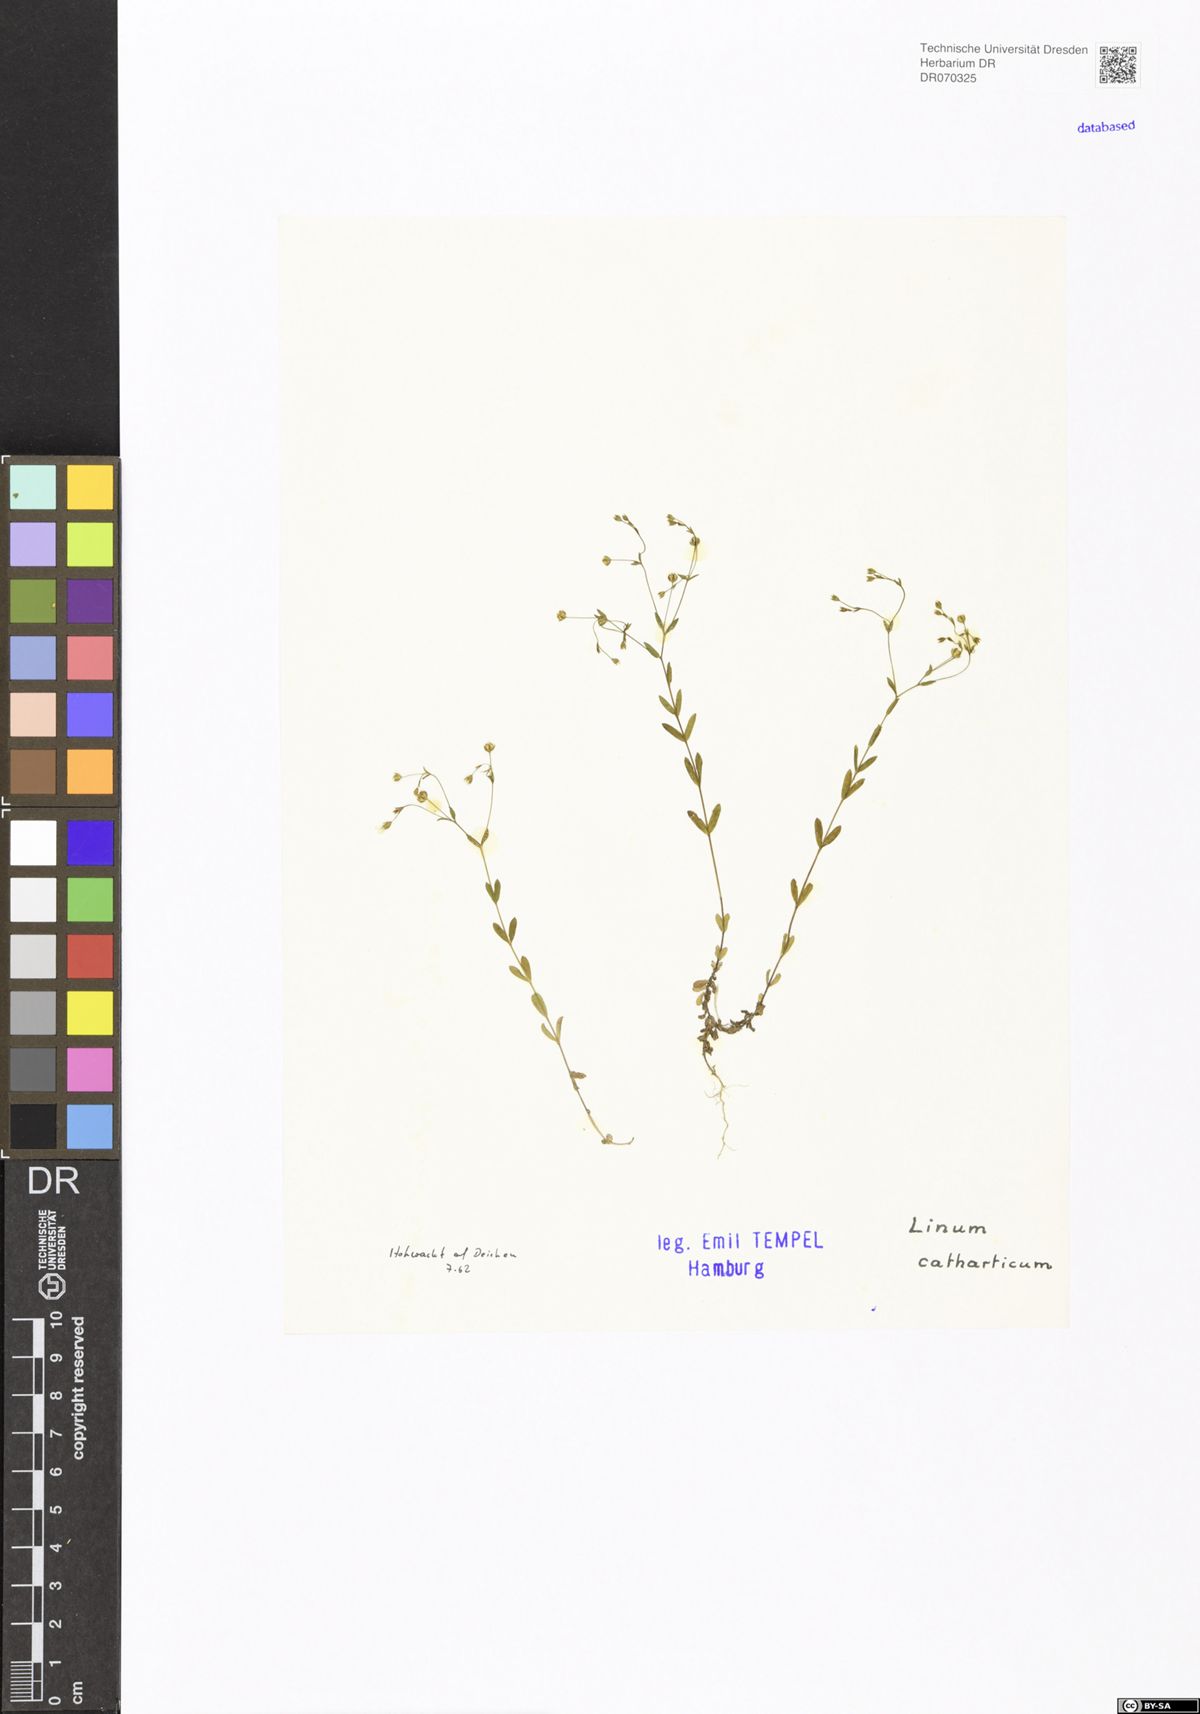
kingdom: Plantae
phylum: Tracheophyta
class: Magnoliopsida
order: Malpighiales
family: Linaceae
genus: Linum
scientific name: Linum catharticum
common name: Fairy flax
